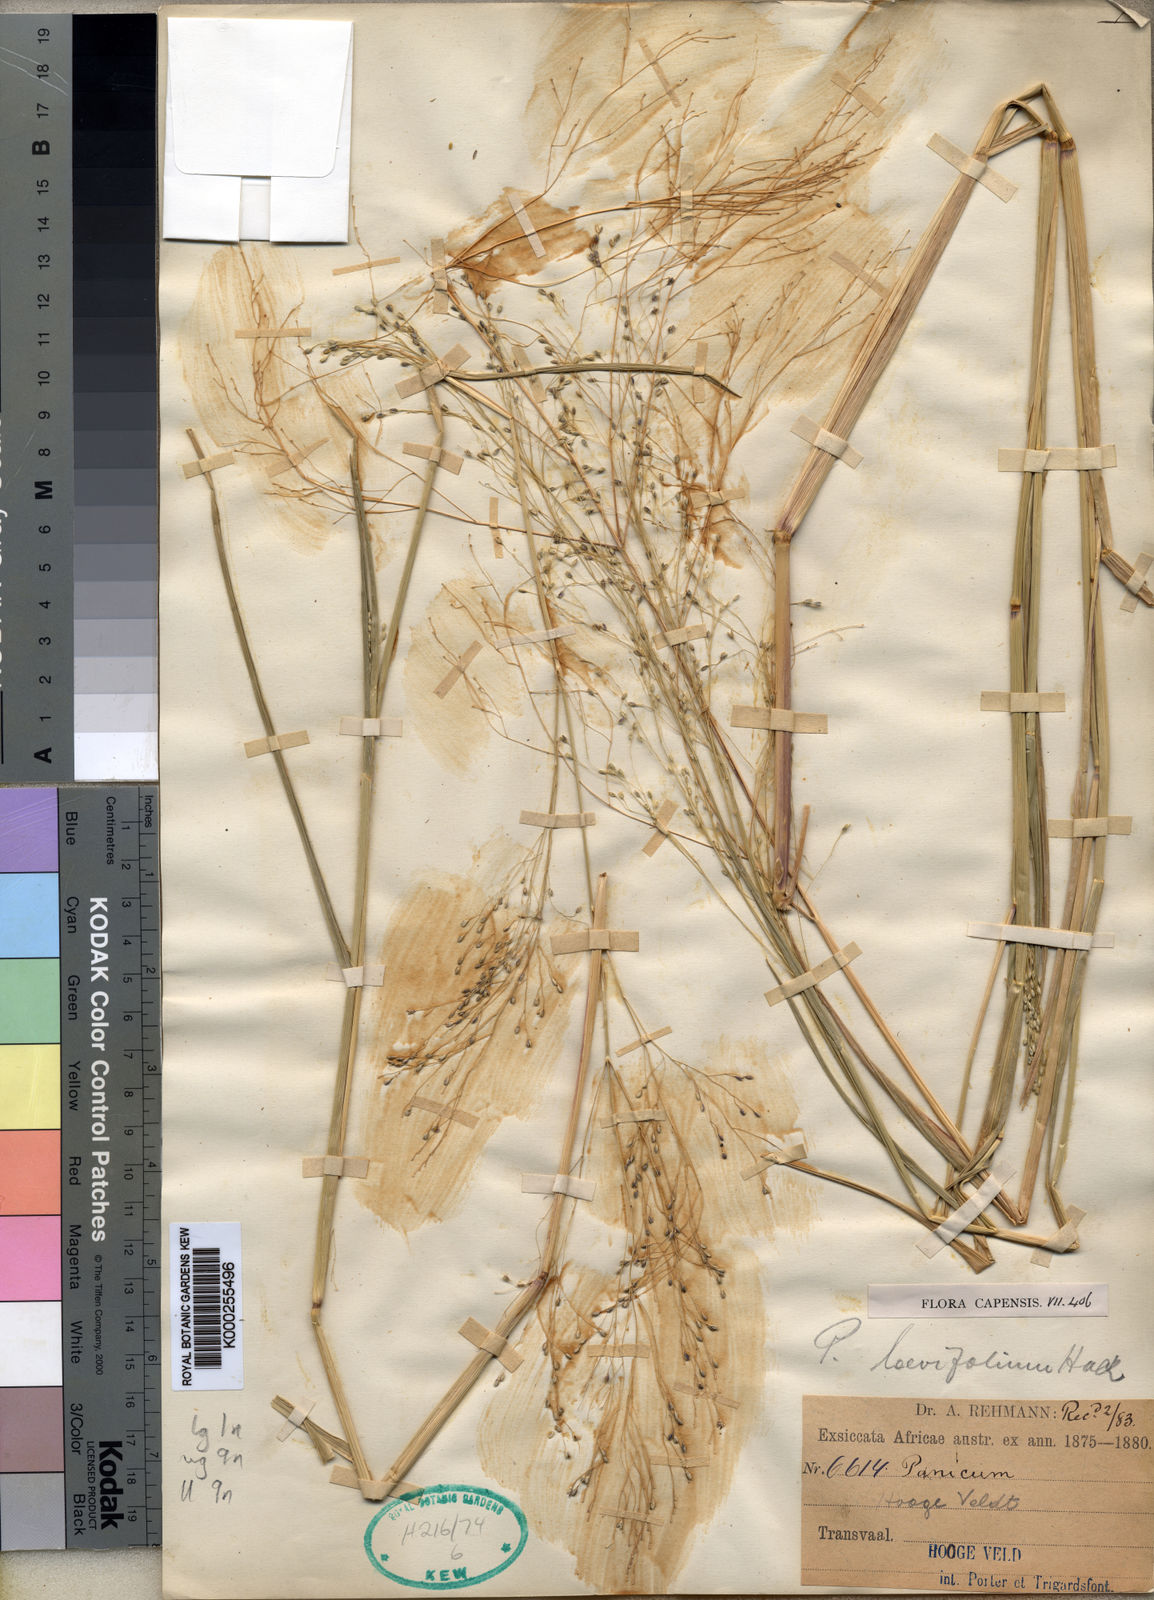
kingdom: Plantae
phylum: Tracheophyta
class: Liliopsida
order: Poales
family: Poaceae
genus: Panicum
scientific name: Panicum
